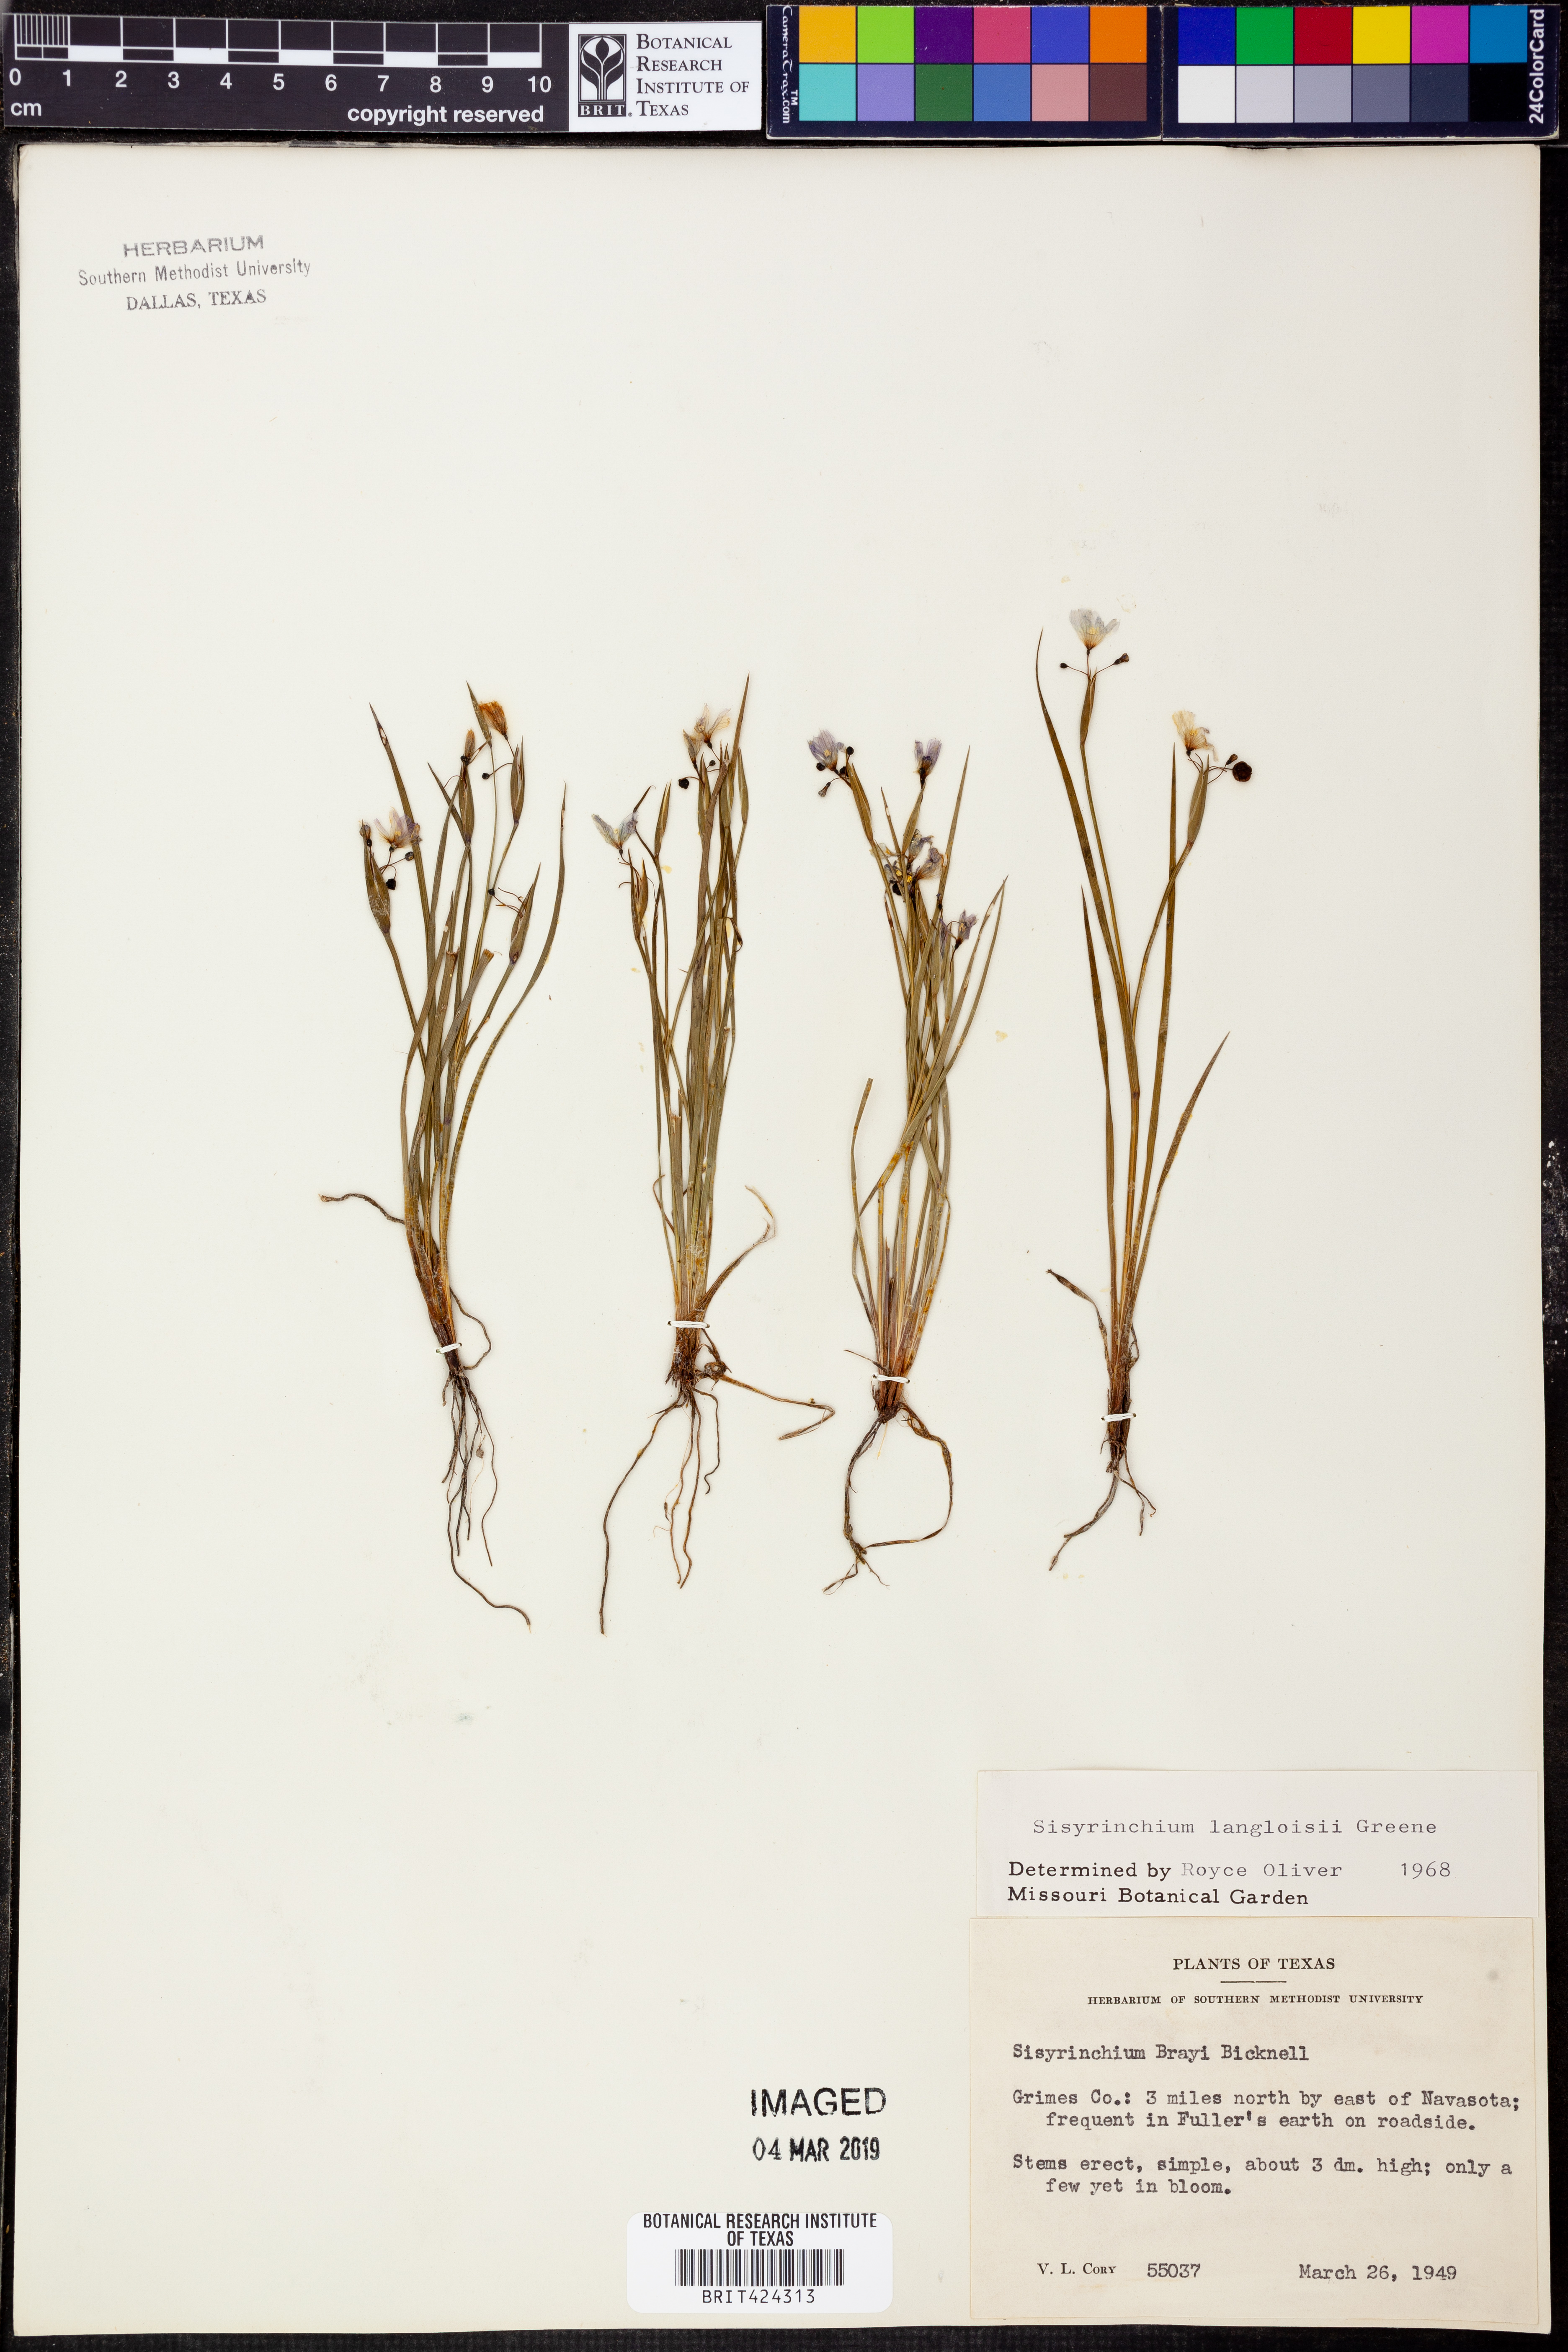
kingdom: Plantae
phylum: Tracheophyta
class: Liliopsida
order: Asparagales
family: Iridaceae
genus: Sisyrinchium
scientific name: Sisyrinchium langloisii
